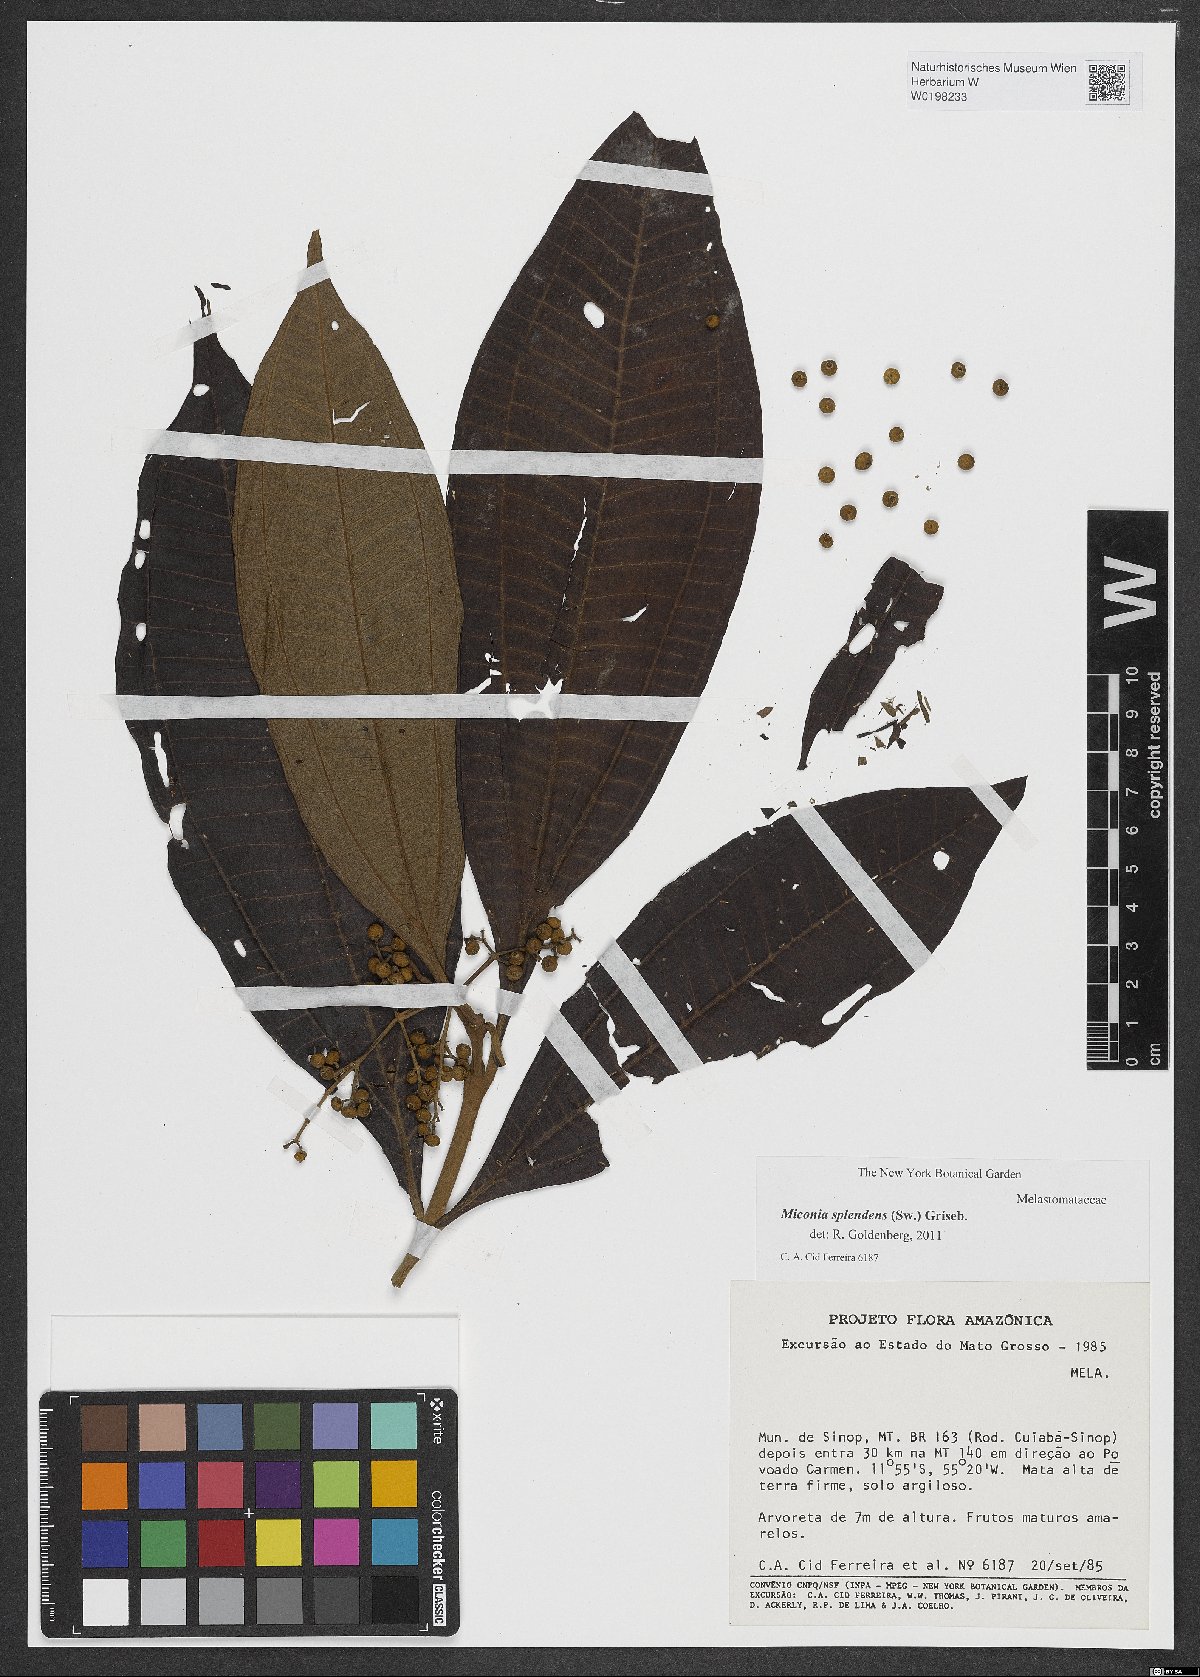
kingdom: Plantae
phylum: Tracheophyta
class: Magnoliopsida
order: Myrtales
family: Melastomataceae
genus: Miconia
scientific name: Miconia splendens
